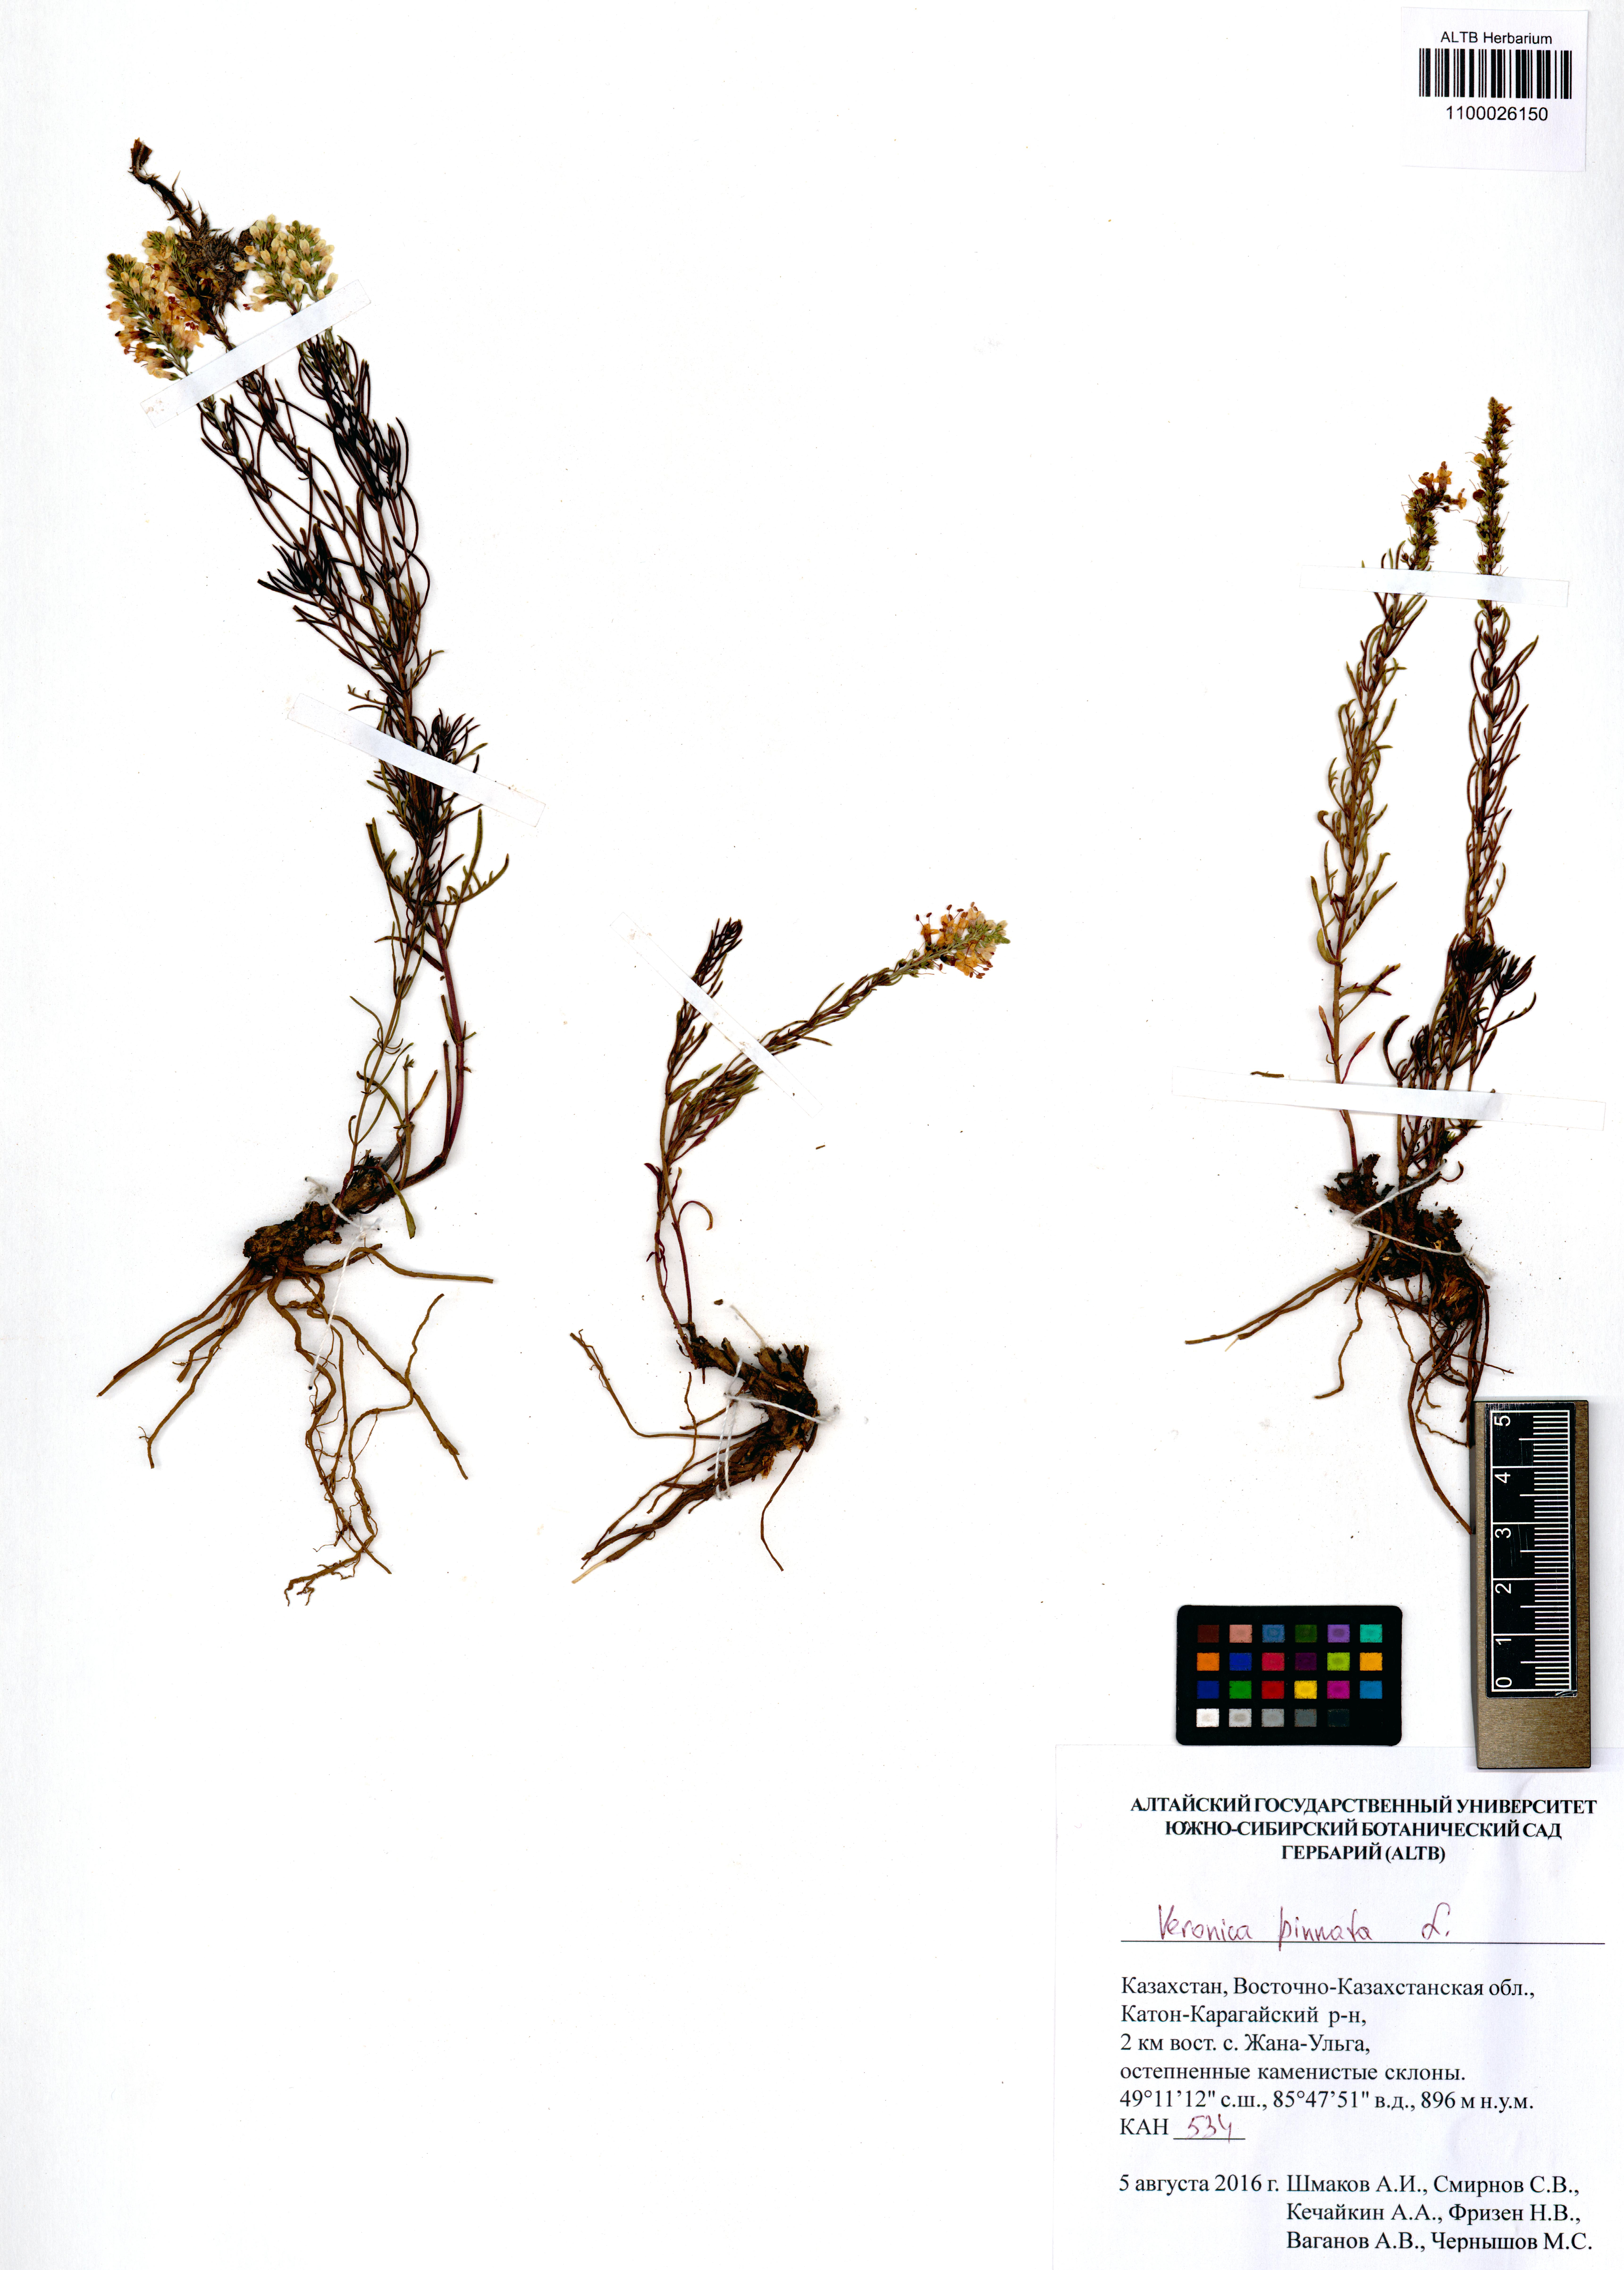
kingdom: Plantae
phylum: Tracheophyta
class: Magnoliopsida
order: Lamiales
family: Plantaginaceae
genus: Veronica
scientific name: Veronica pinnata
